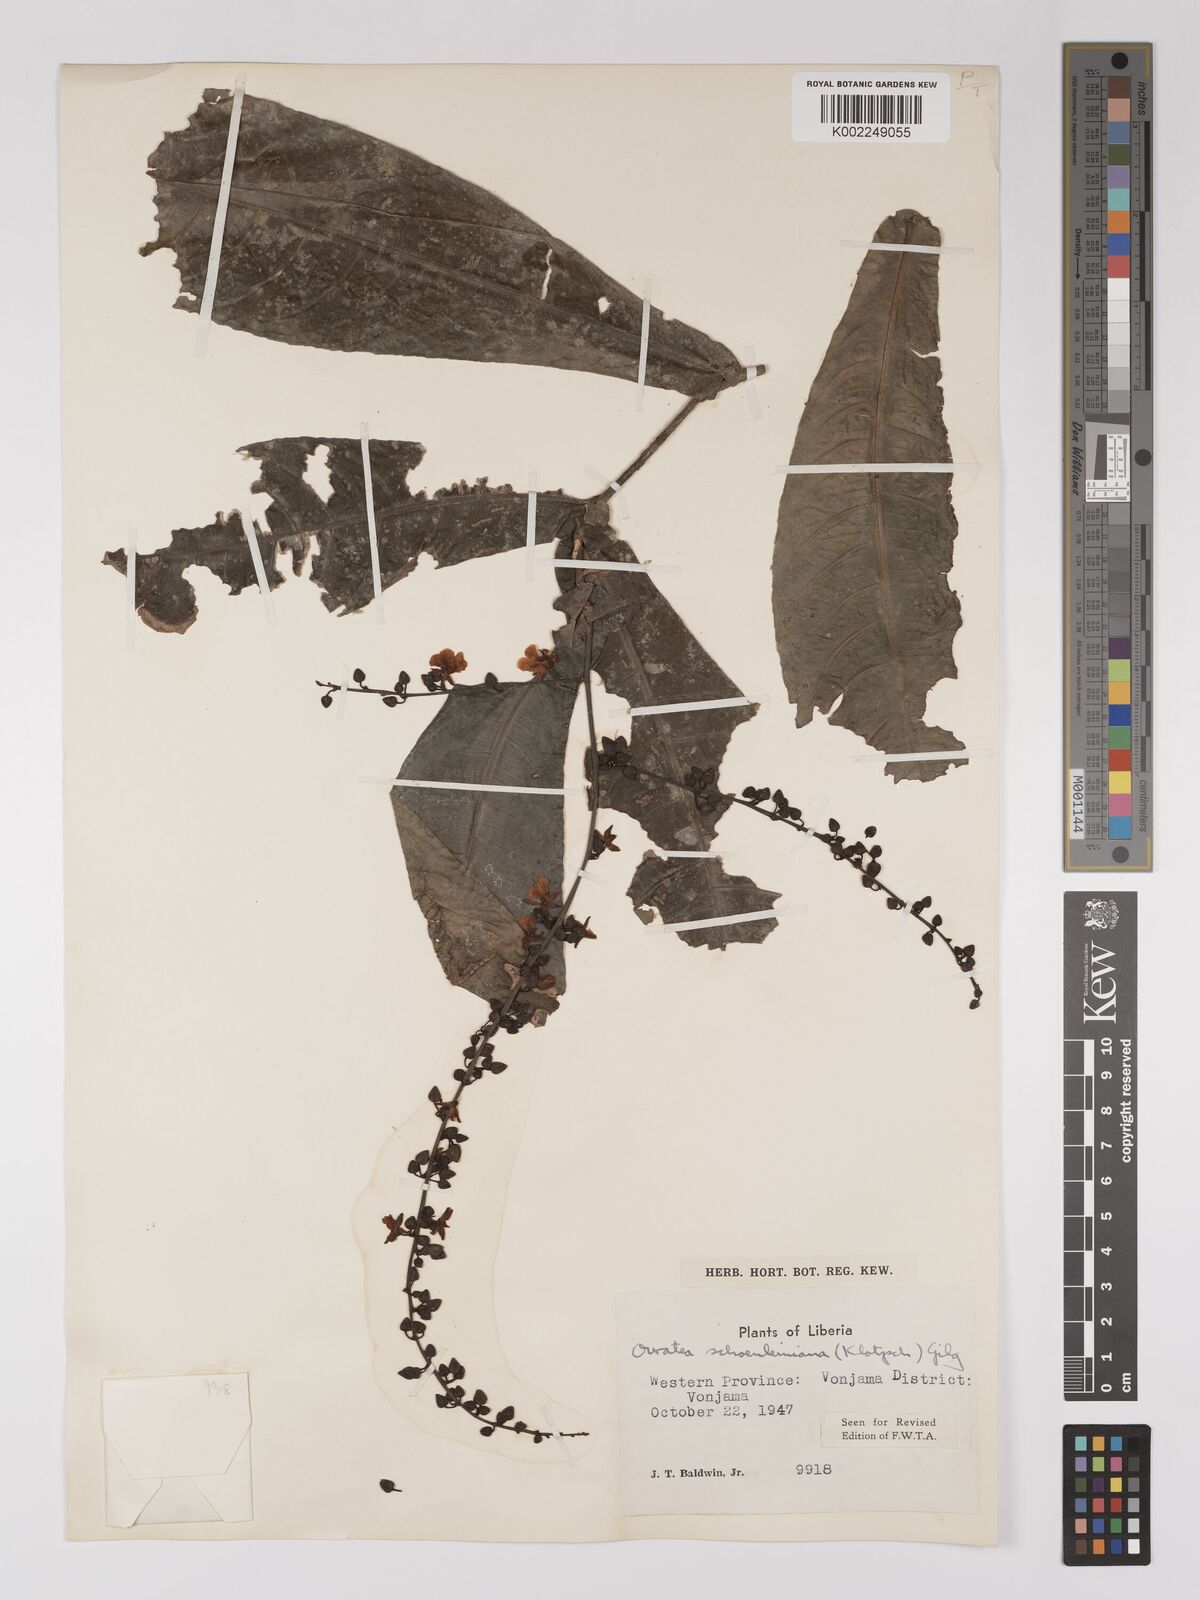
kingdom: Plantae
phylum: Tracheophyta
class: Magnoliopsida
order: Malpighiales
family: Ochnaceae
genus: Campylospermum
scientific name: Campylospermum schoenleinianum
